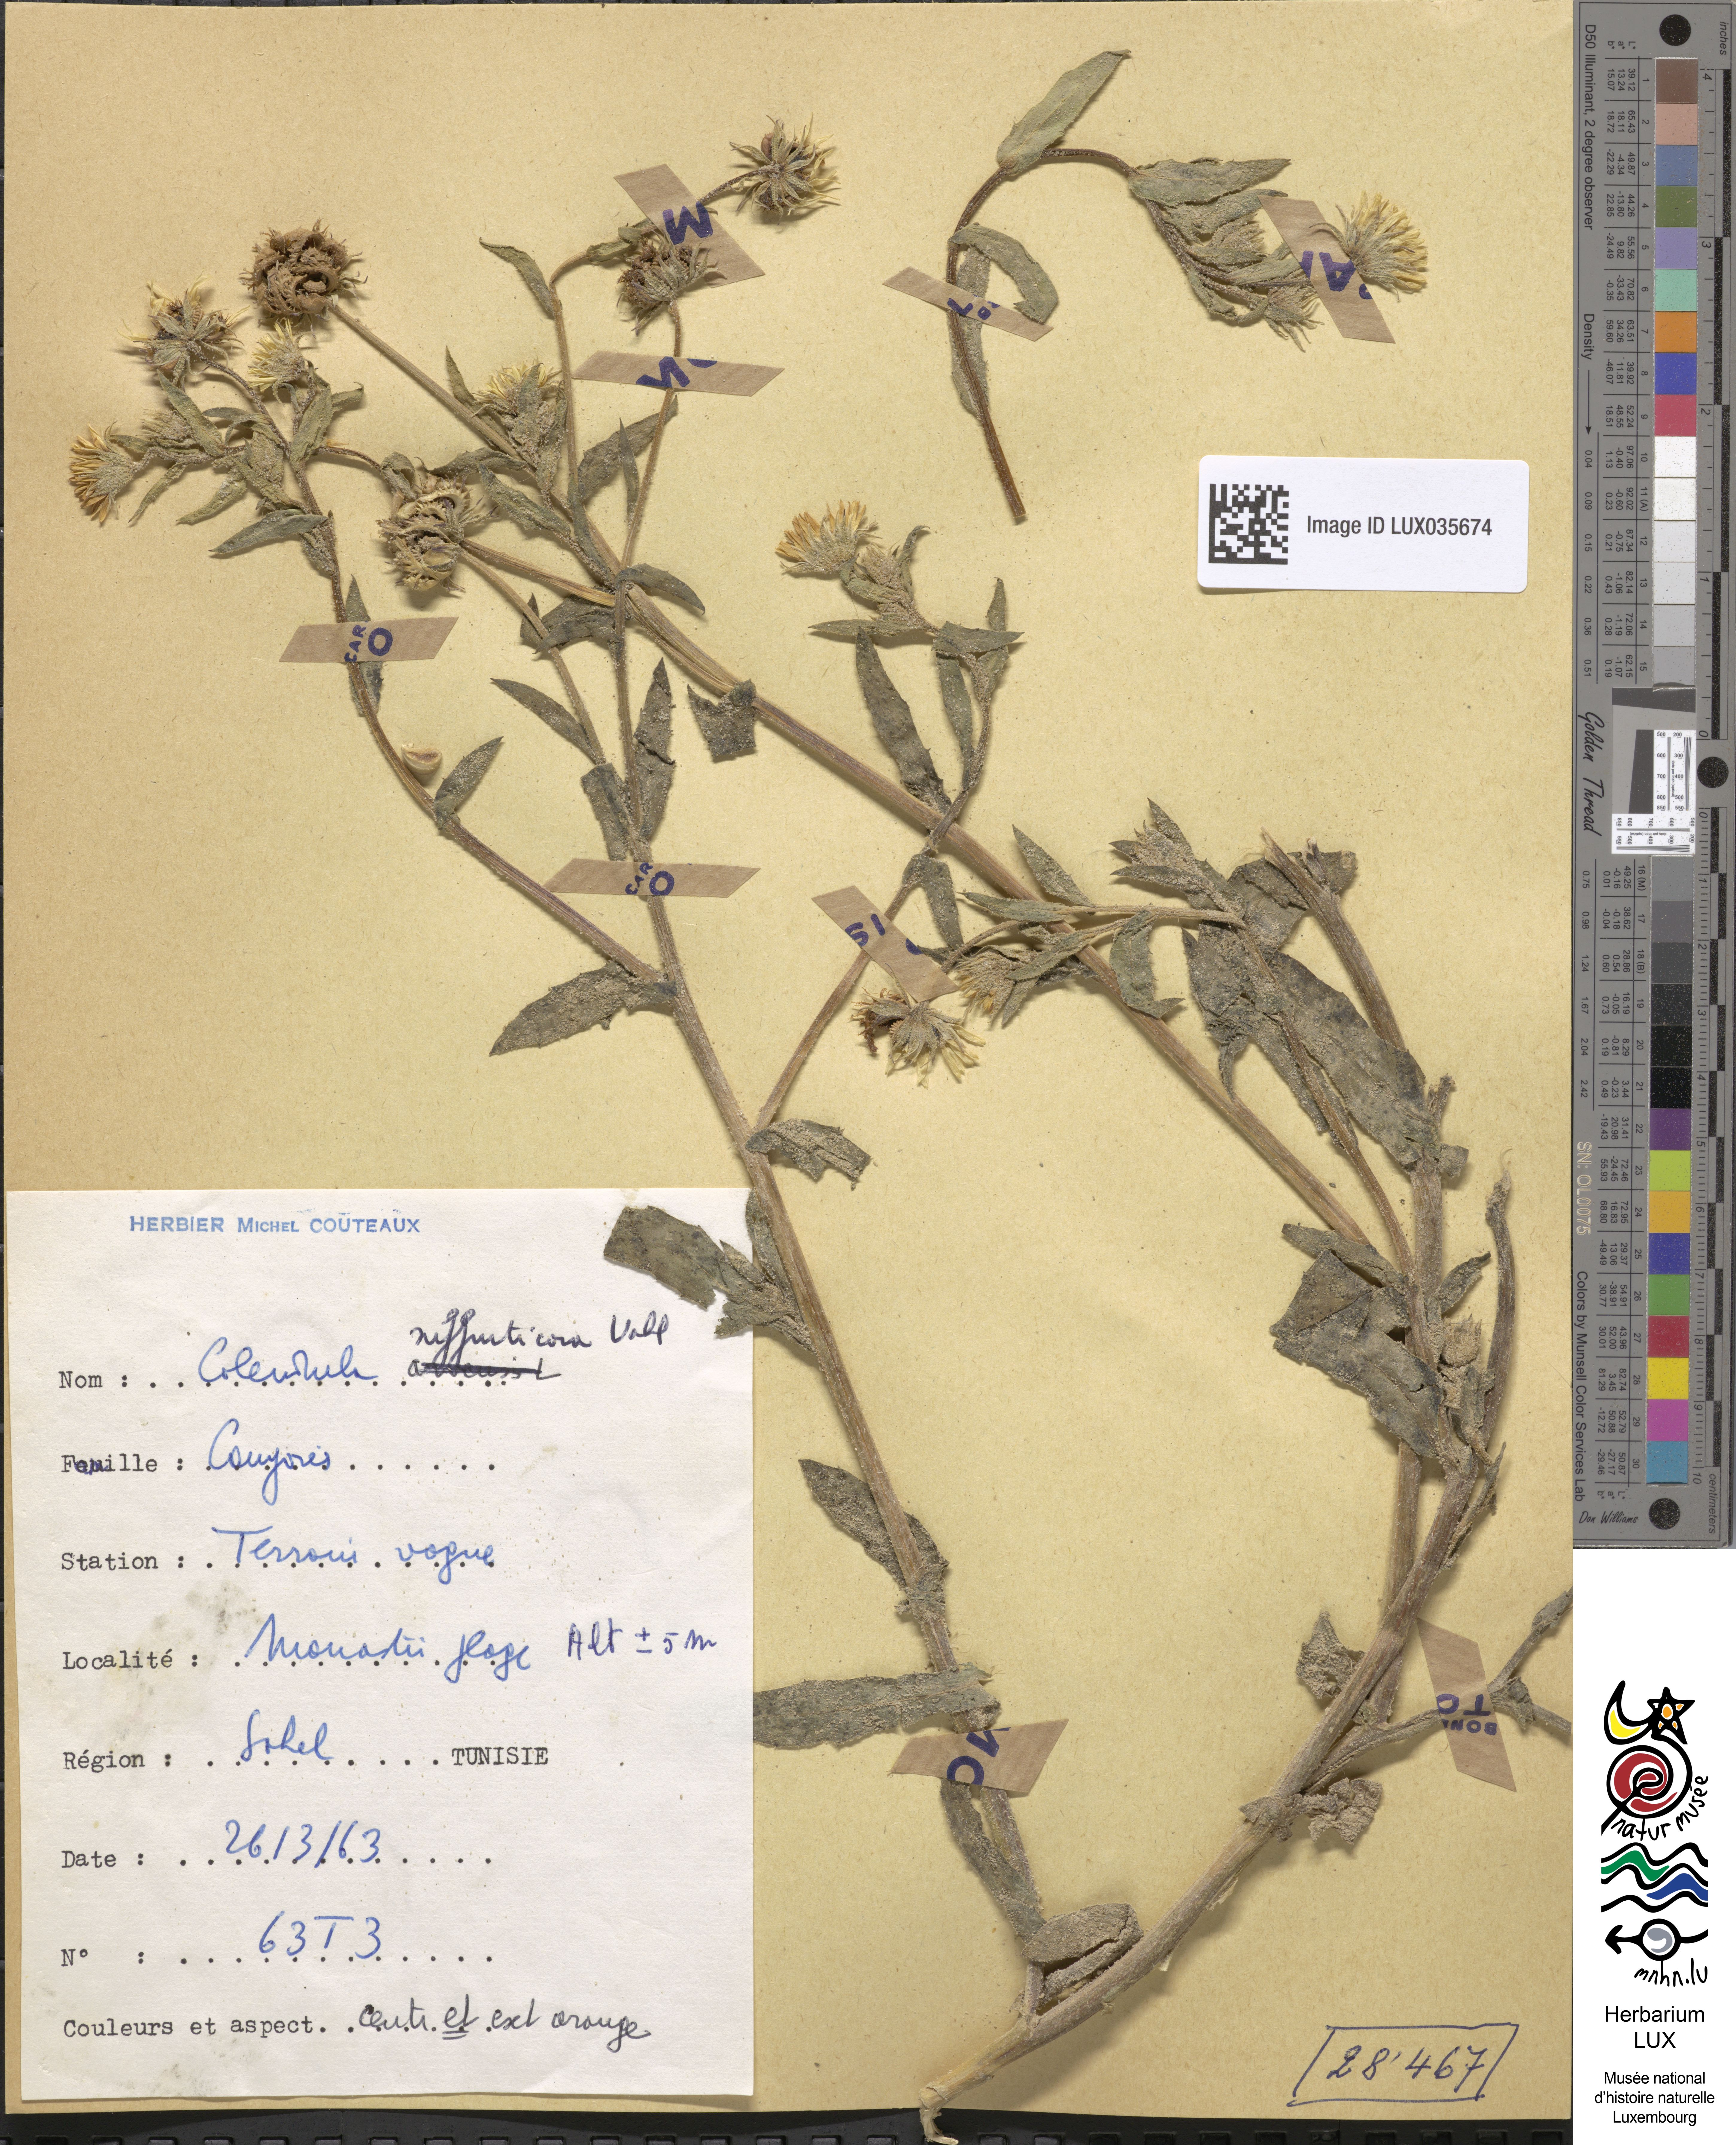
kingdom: Plantae
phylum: Tracheophyta
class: Magnoliopsida
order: Asterales
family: Asteraceae
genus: Calendula
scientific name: Calendula suffruticosa
